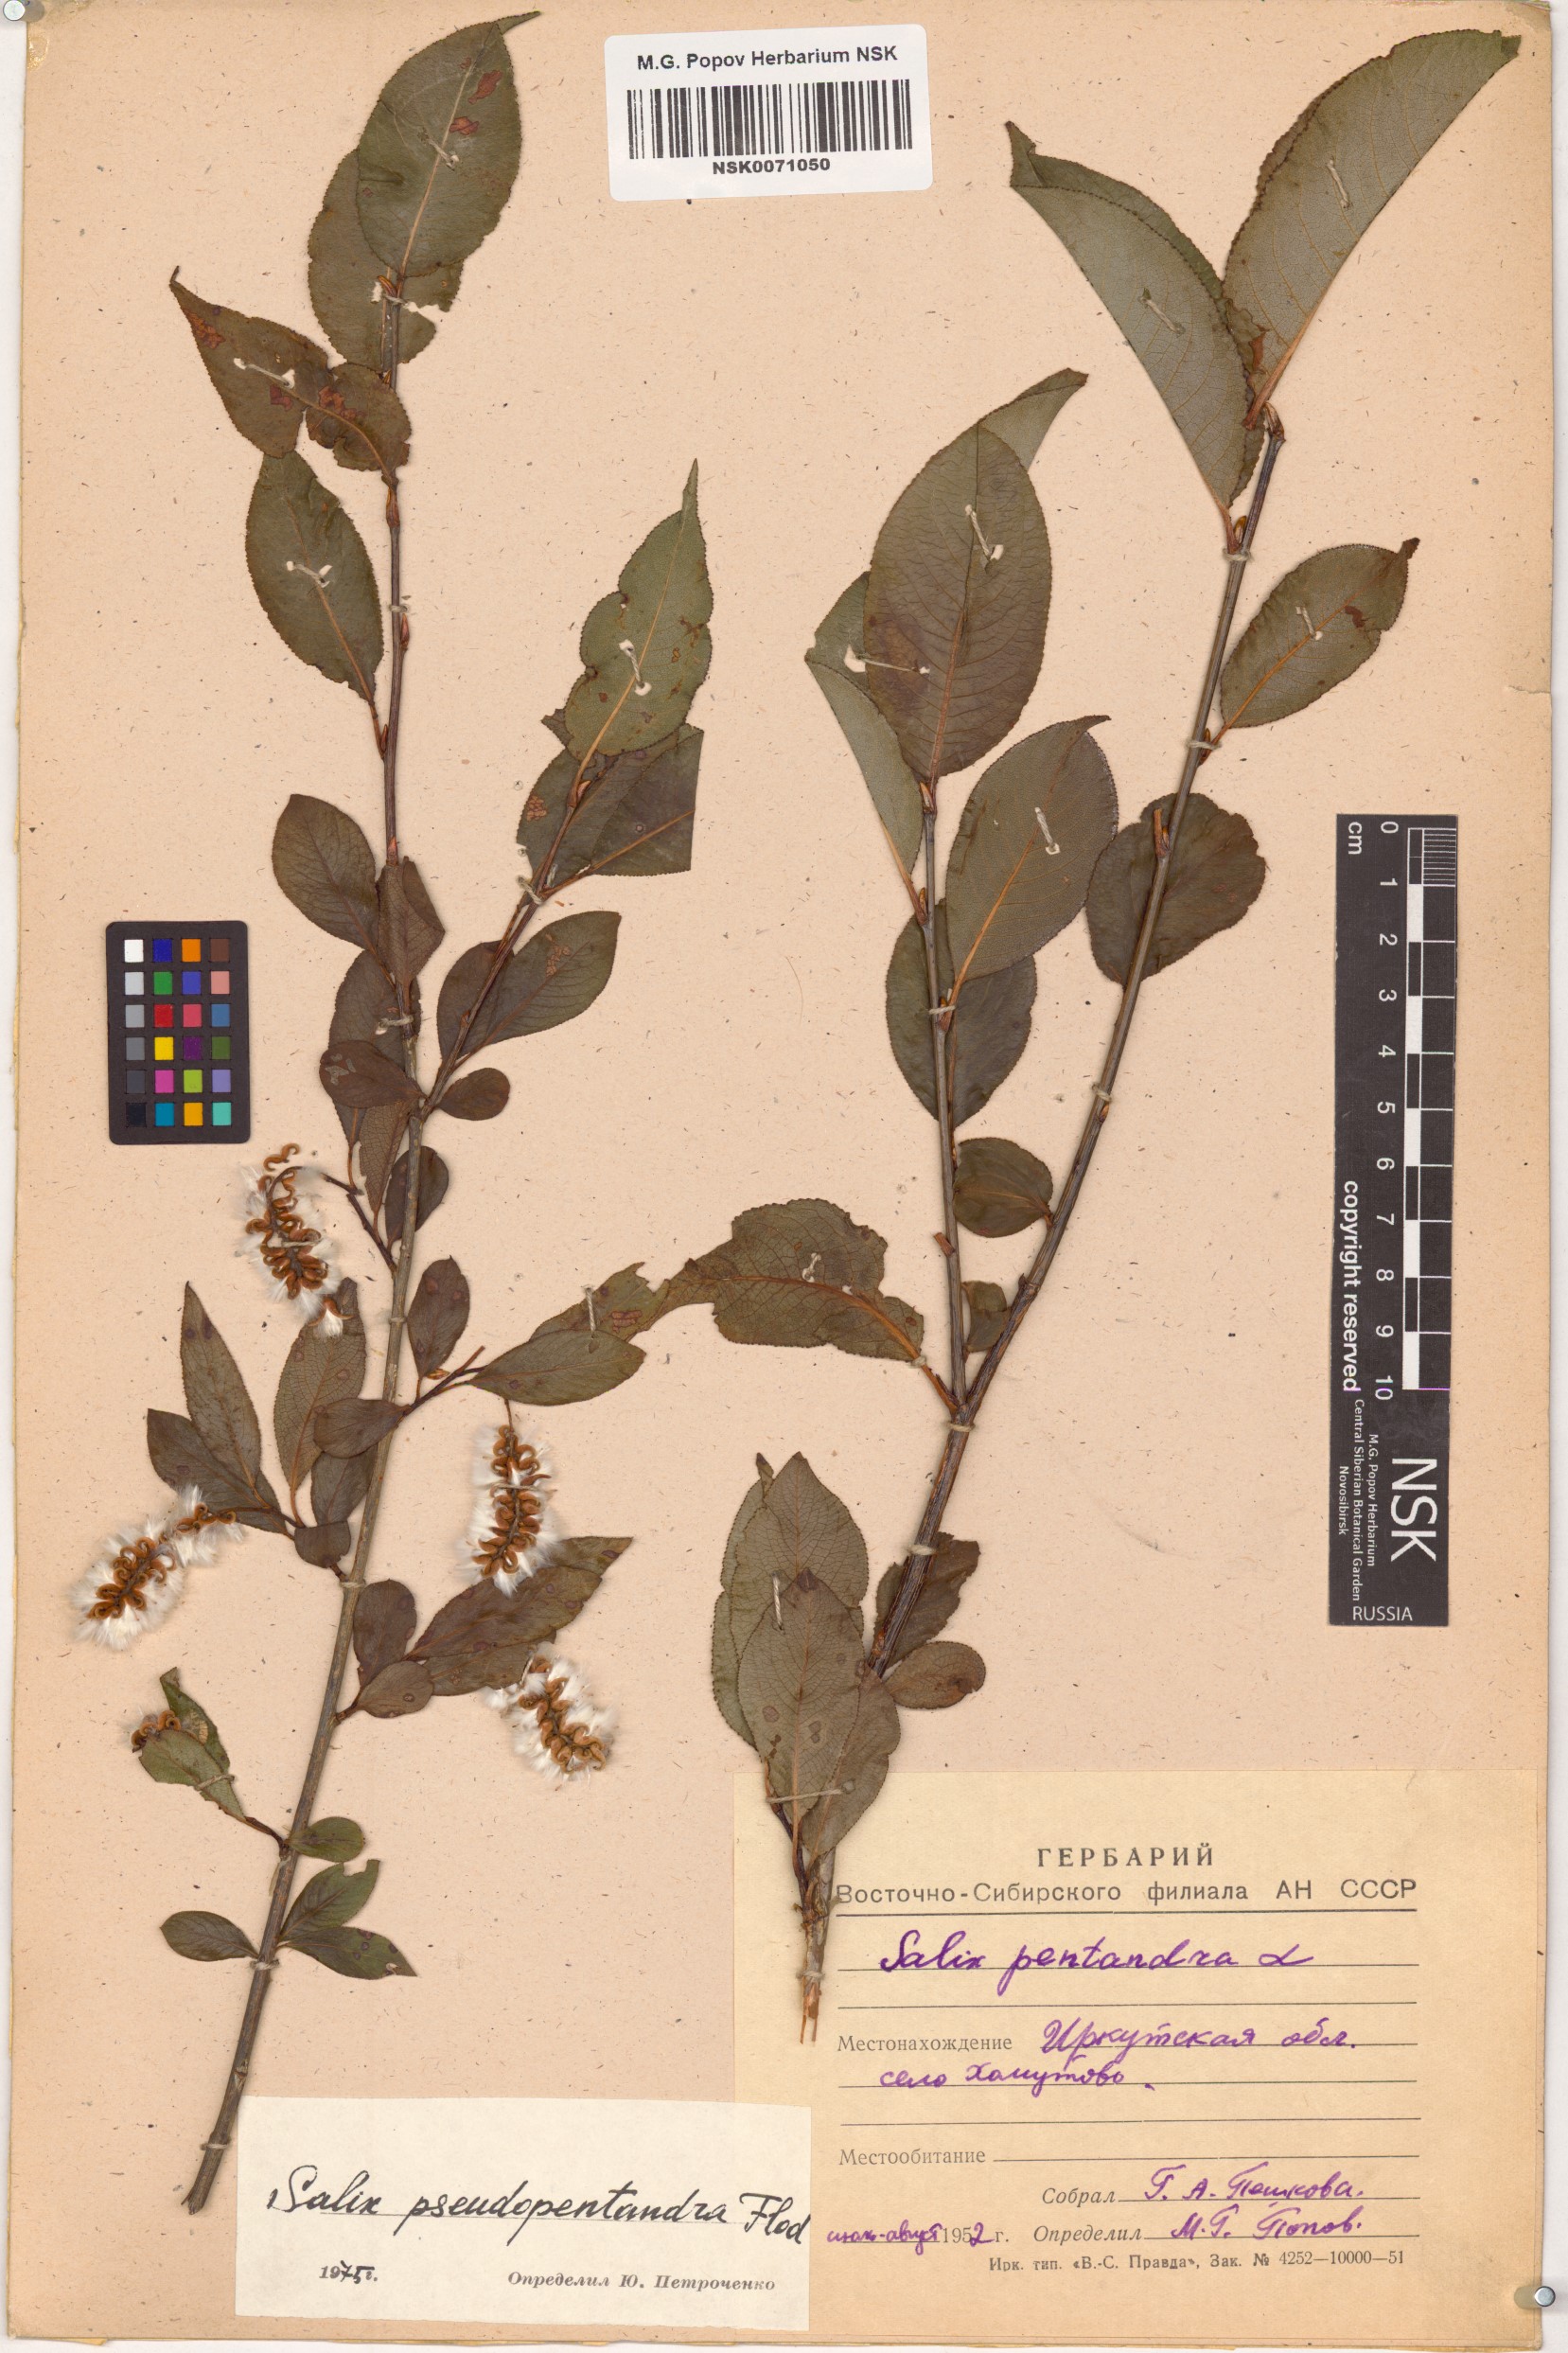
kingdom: Plantae
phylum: Tracheophyta
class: Magnoliopsida
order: Malpighiales
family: Salicaceae
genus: Salix
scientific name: Salix pseudopentandra
